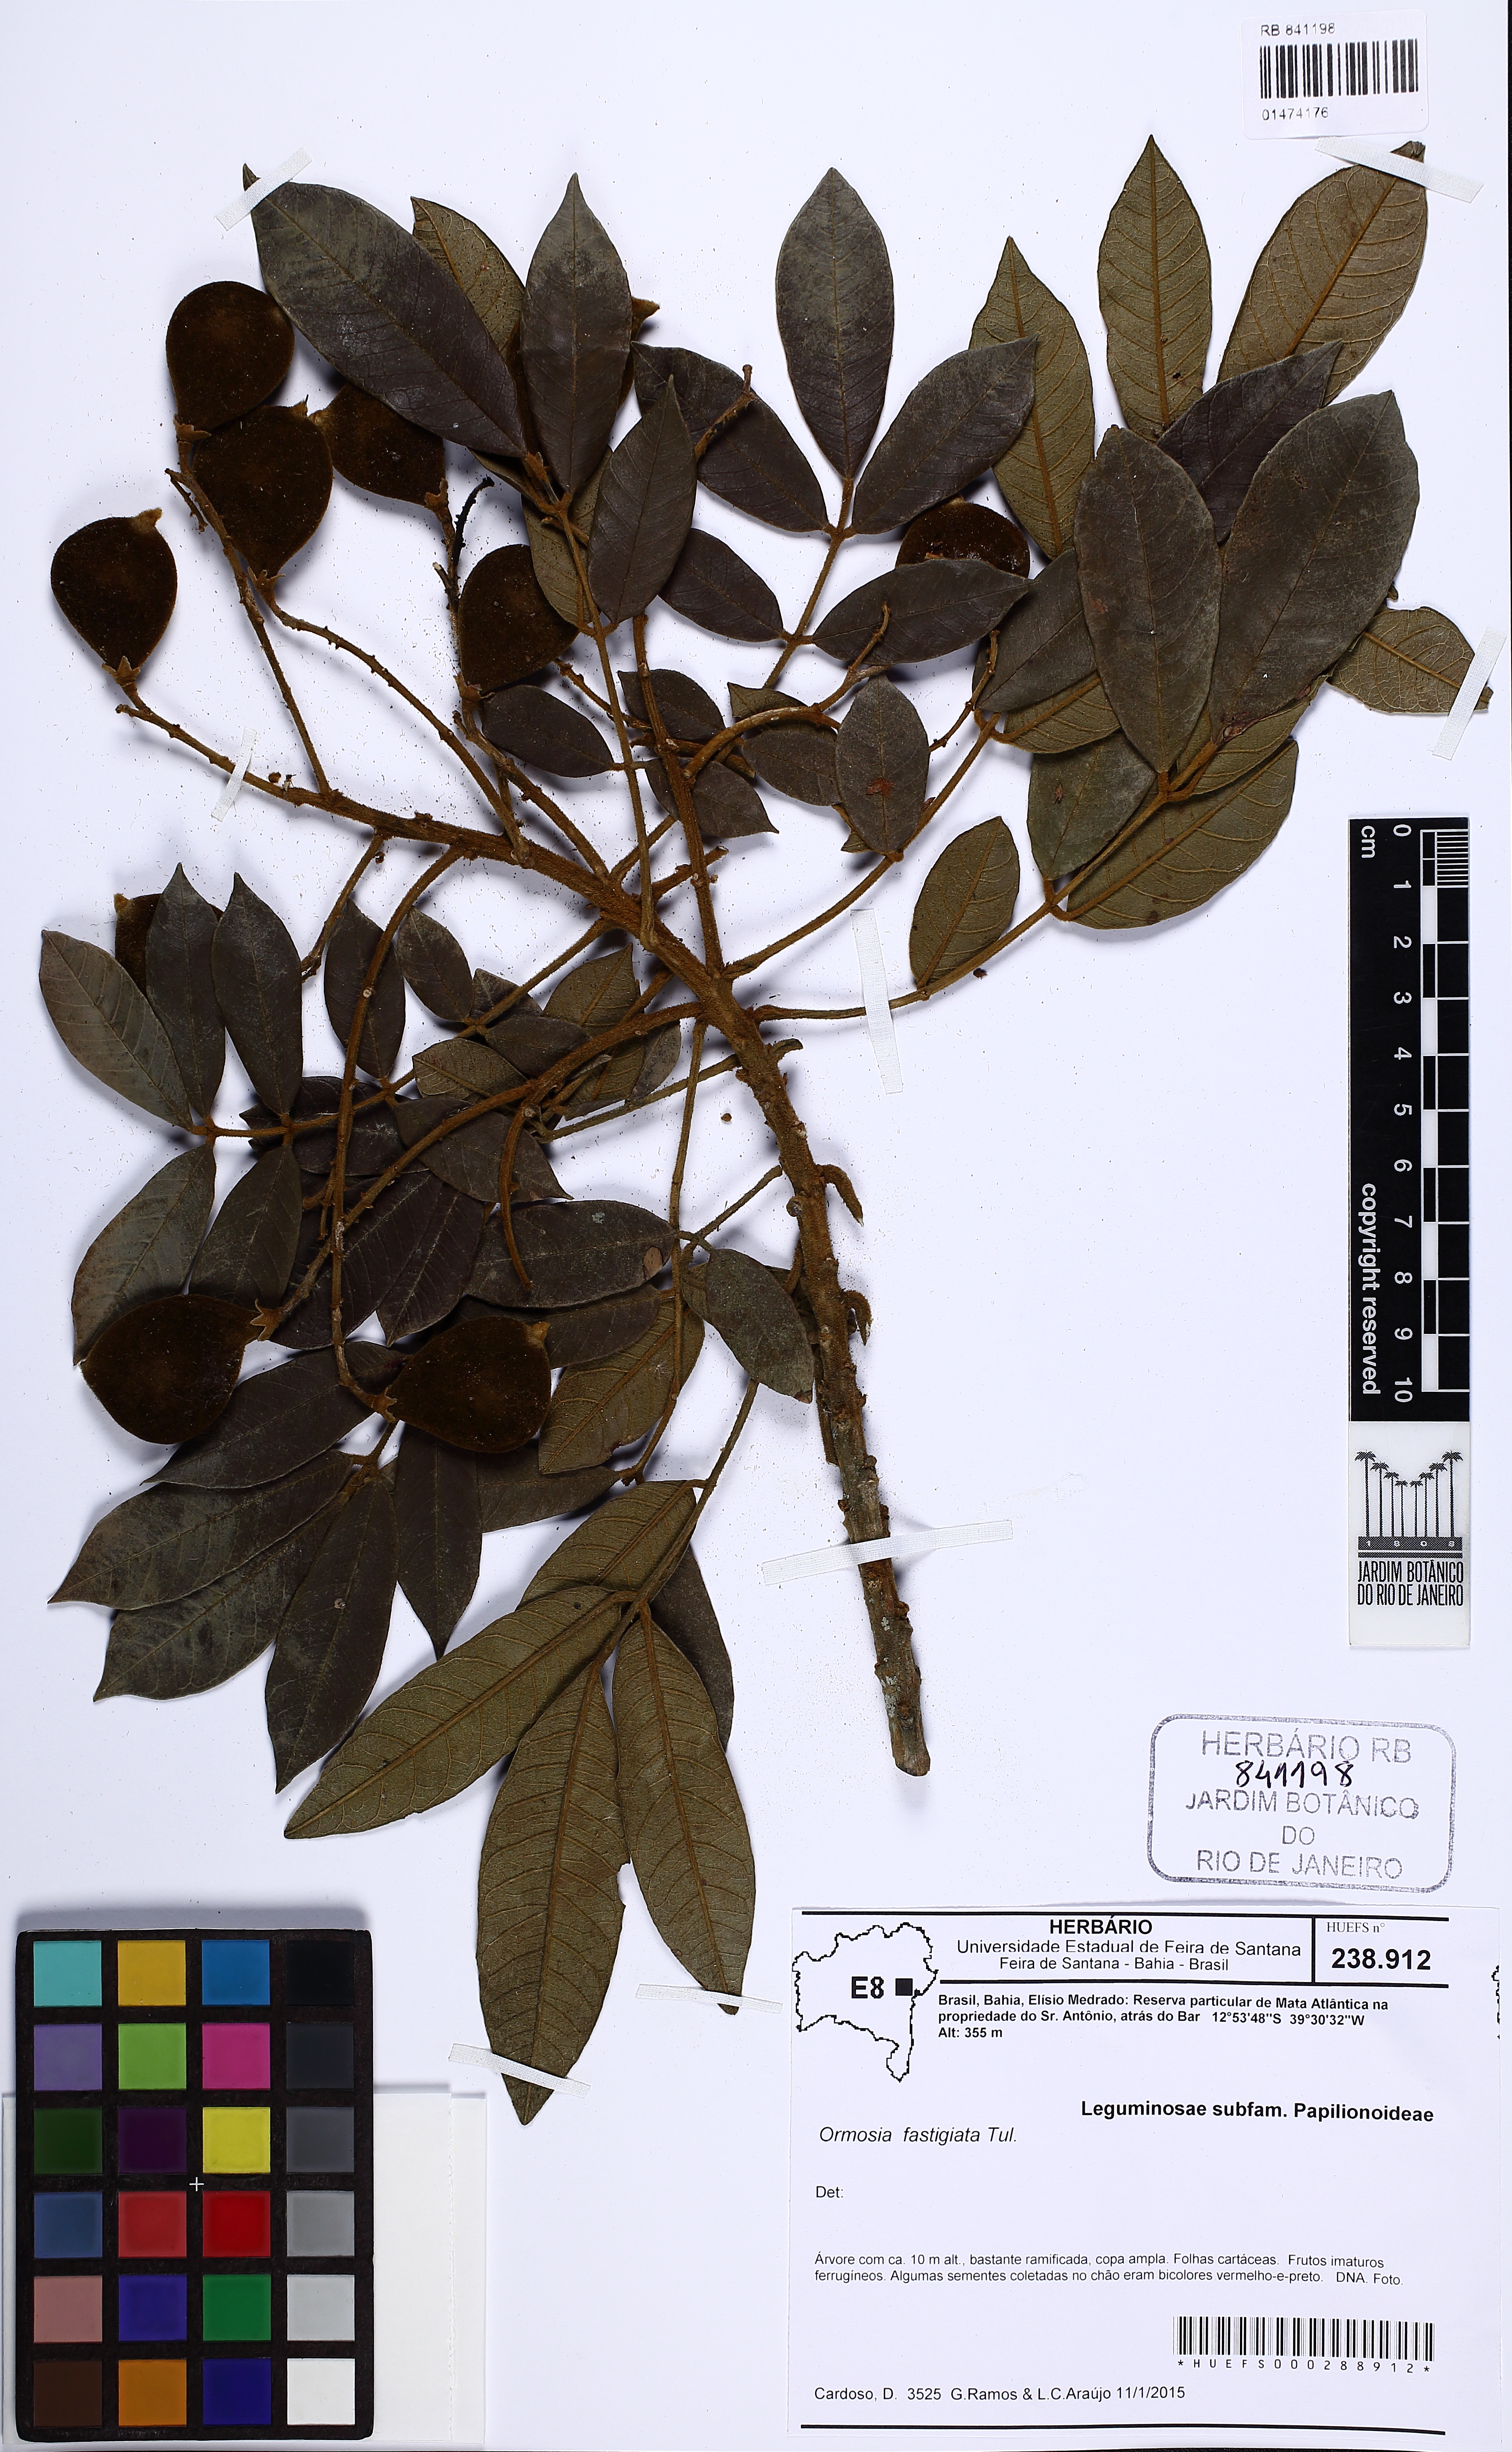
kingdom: Plantae
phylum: Tracheophyta
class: Magnoliopsida
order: Fabales
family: Fabaceae
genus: Ormosia
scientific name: Ormosia fastigiata
